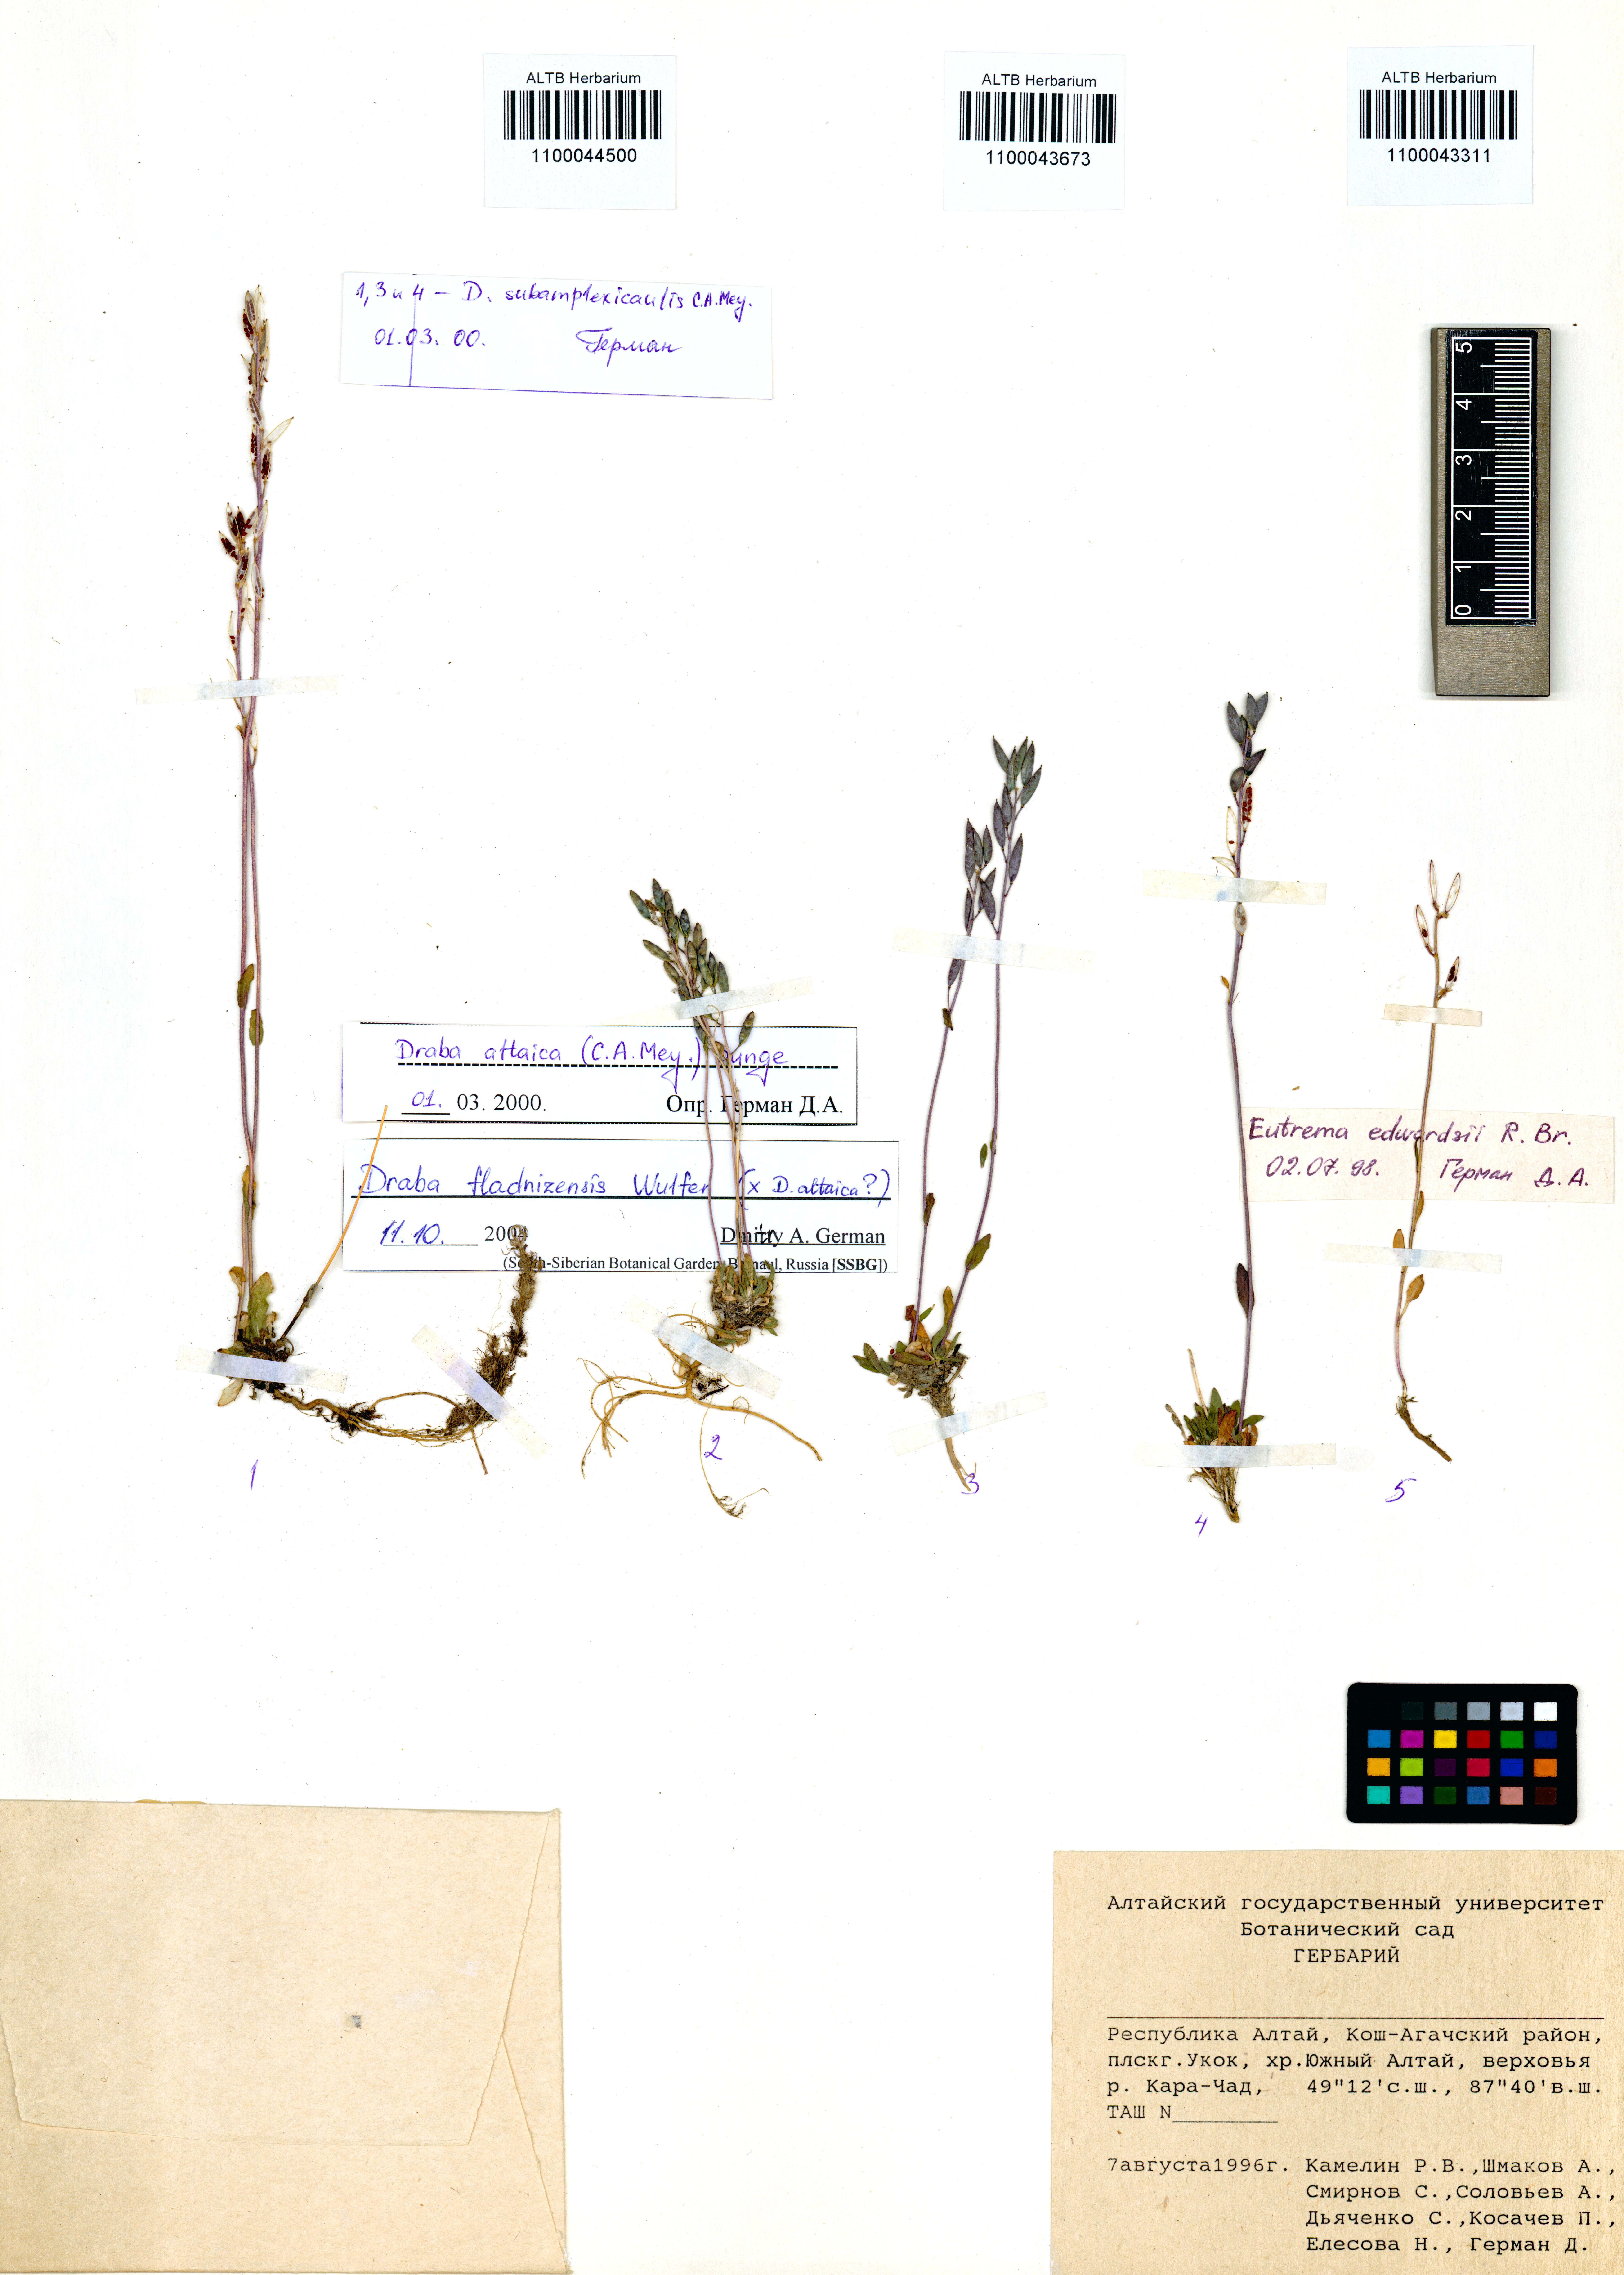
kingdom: Plantae
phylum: Tracheophyta
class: Magnoliopsida
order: Brassicales
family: Brassicaceae
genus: Eutrema
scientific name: Eutrema edwardsii
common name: Penland alpine fen mustard
